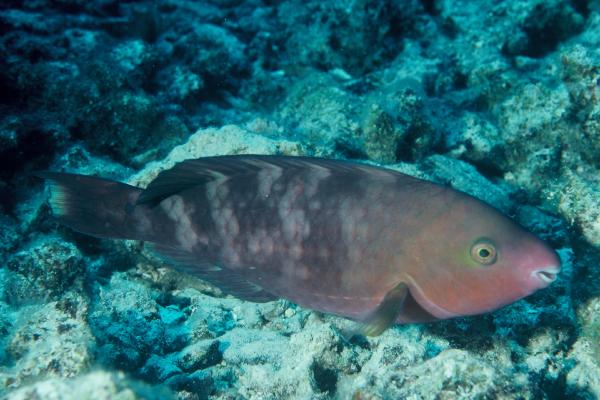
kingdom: Animalia
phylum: Chordata
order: Perciformes
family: Scaridae
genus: Scarus
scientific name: Scarus dubius
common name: Regal parrot
